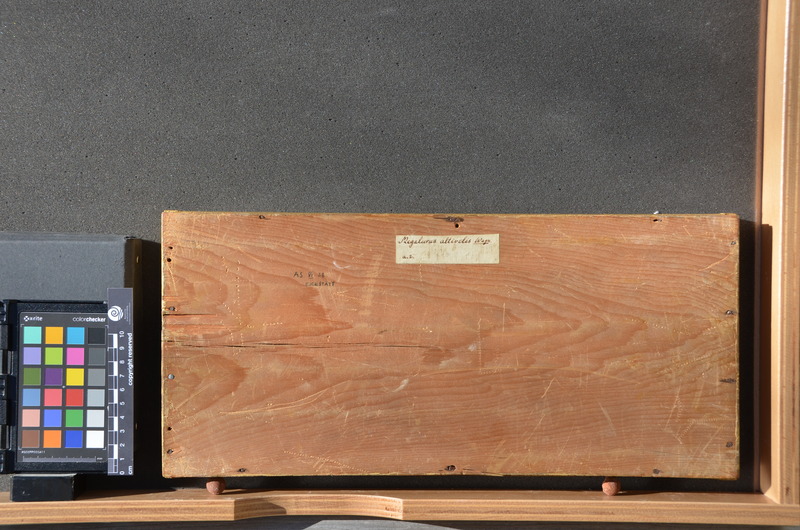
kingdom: Animalia
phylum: Chordata
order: Amiiformes
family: Amiidae
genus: Solnhofenamia
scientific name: Solnhofenamia elongata
